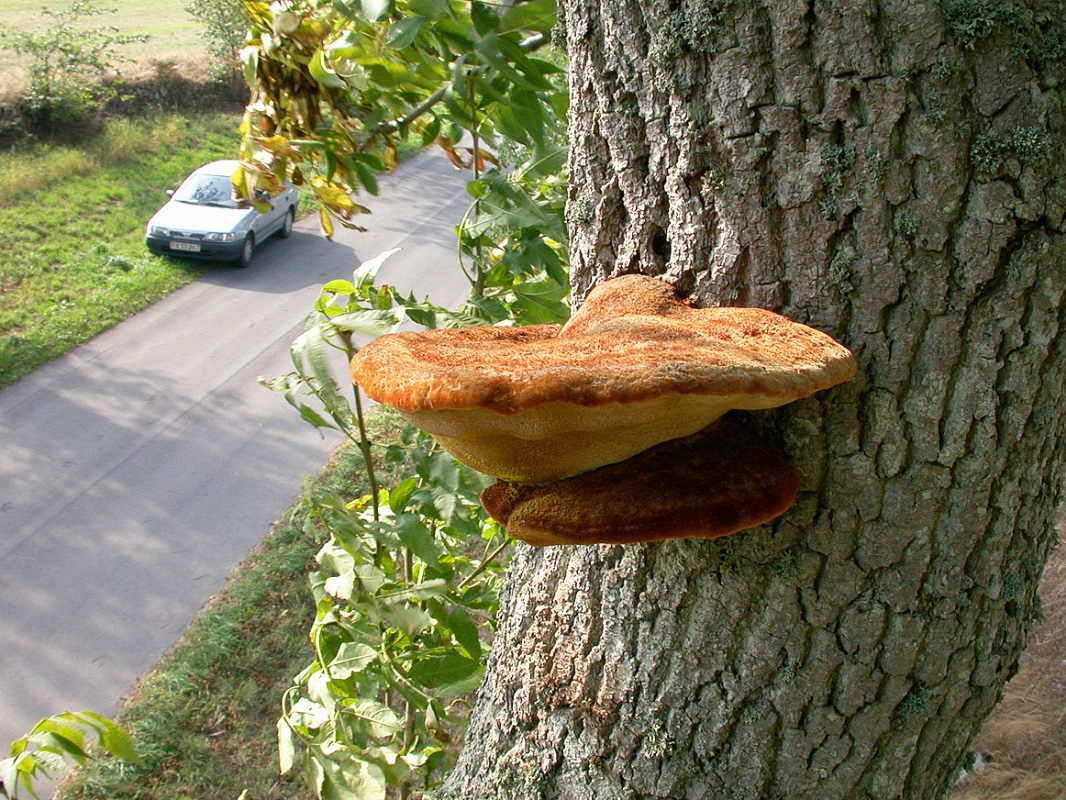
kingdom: Fungi
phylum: Basidiomycota
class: Agaricomycetes
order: Hymenochaetales
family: Hymenochaetaceae
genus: Inonotus
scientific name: Inonotus hispidus
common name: børstehåret spejlporesvamp
